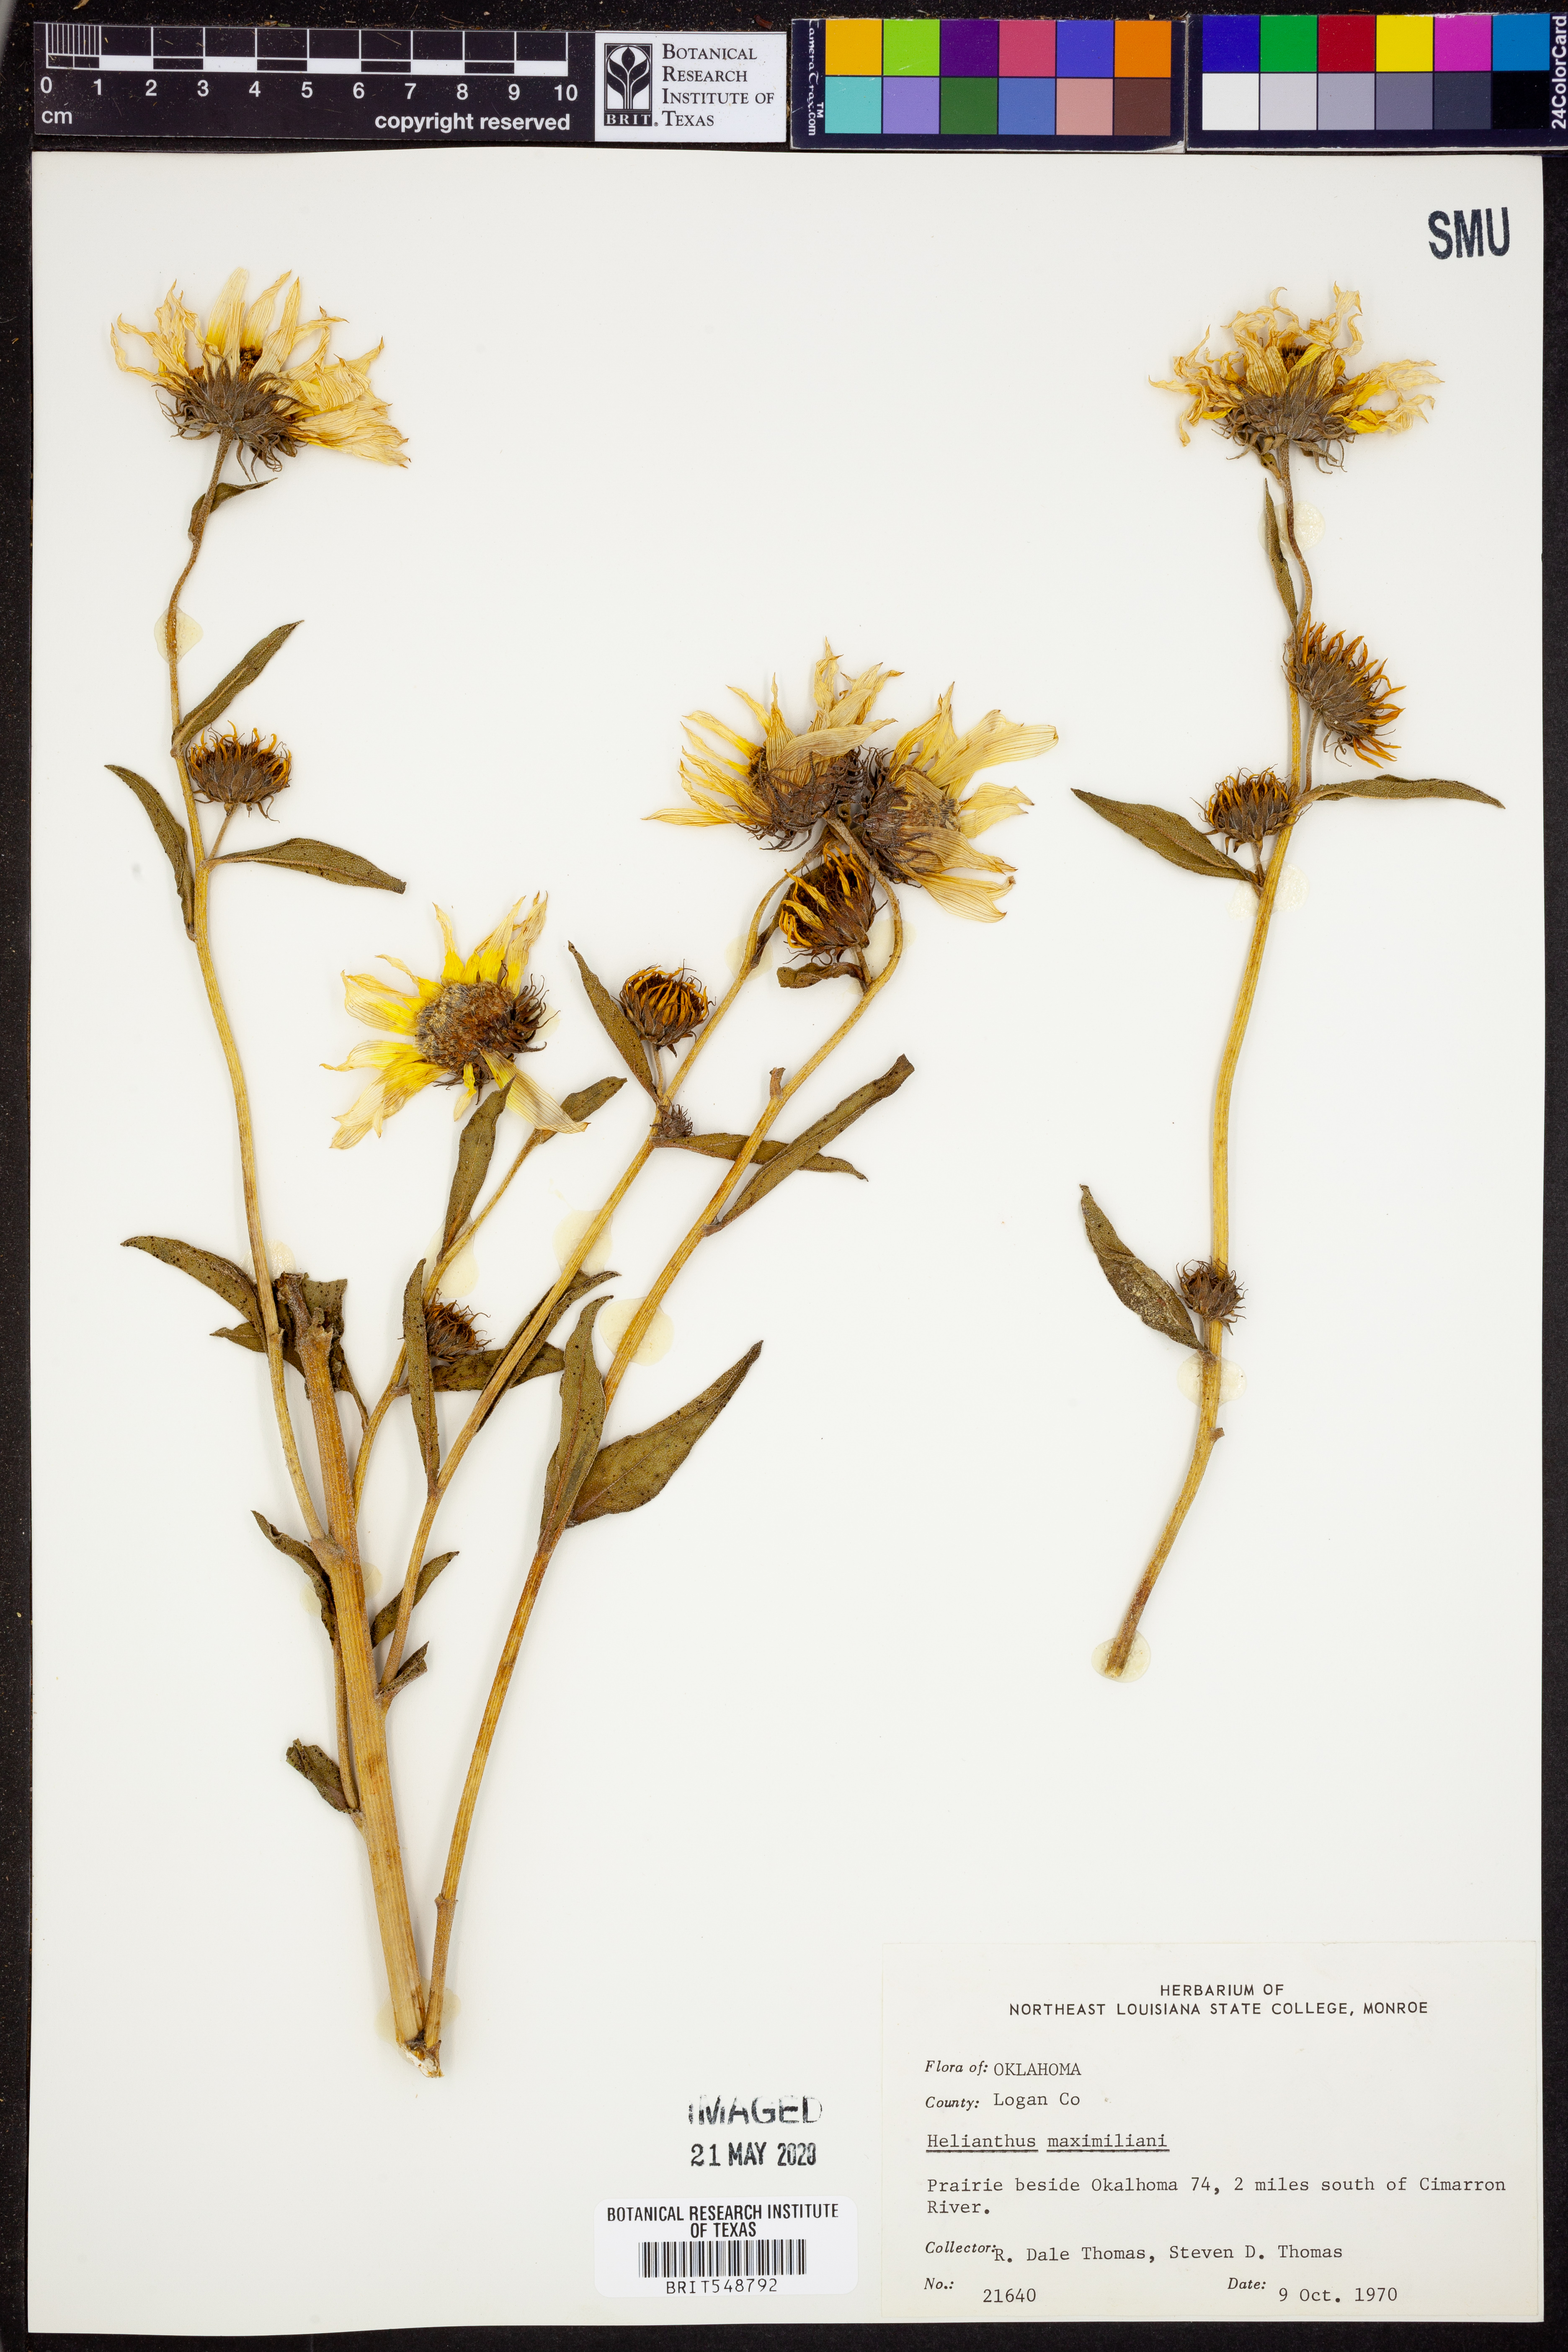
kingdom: Plantae
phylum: Tracheophyta
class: Magnoliopsida
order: Asterales
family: Asteraceae
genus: Helianthus
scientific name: Helianthus maximiliani
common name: Maximilian's sunflower
